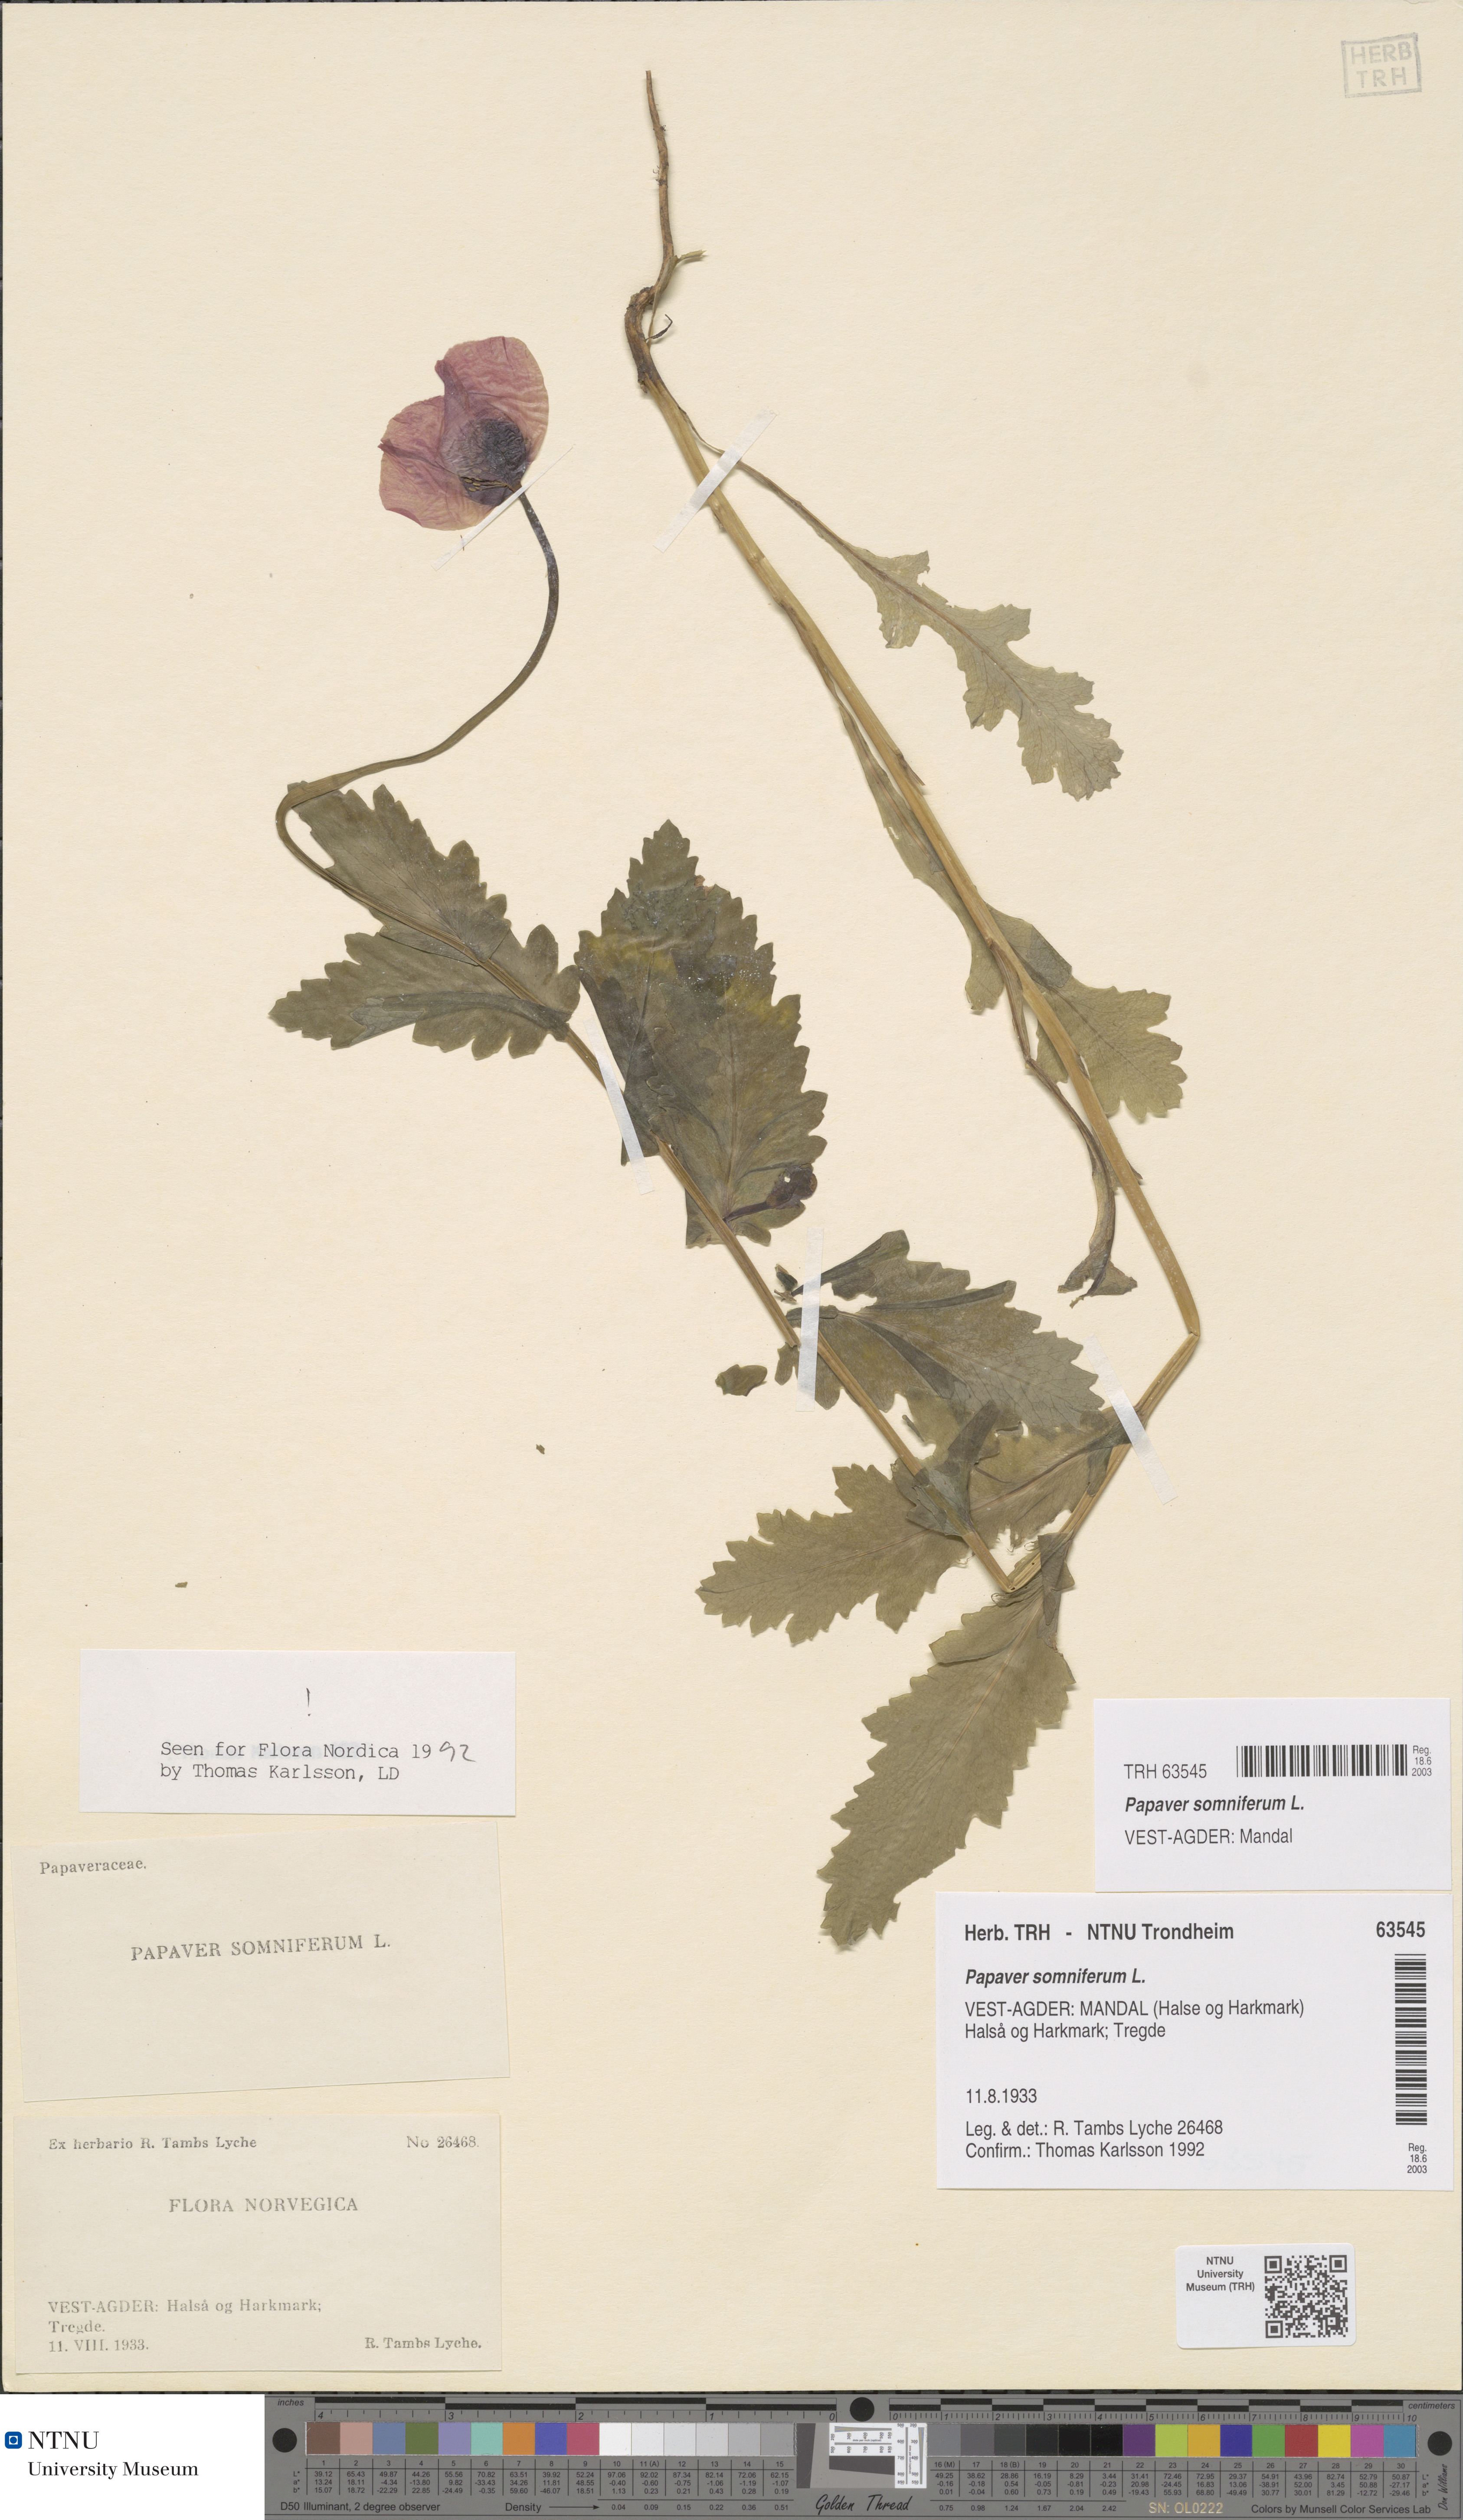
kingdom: Plantae
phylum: Tracheophyta
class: Magnoliopsida
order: Ranunculales
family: Papaveraceae
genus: Papaver
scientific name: Papaver somniferum
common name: Opium poppy
